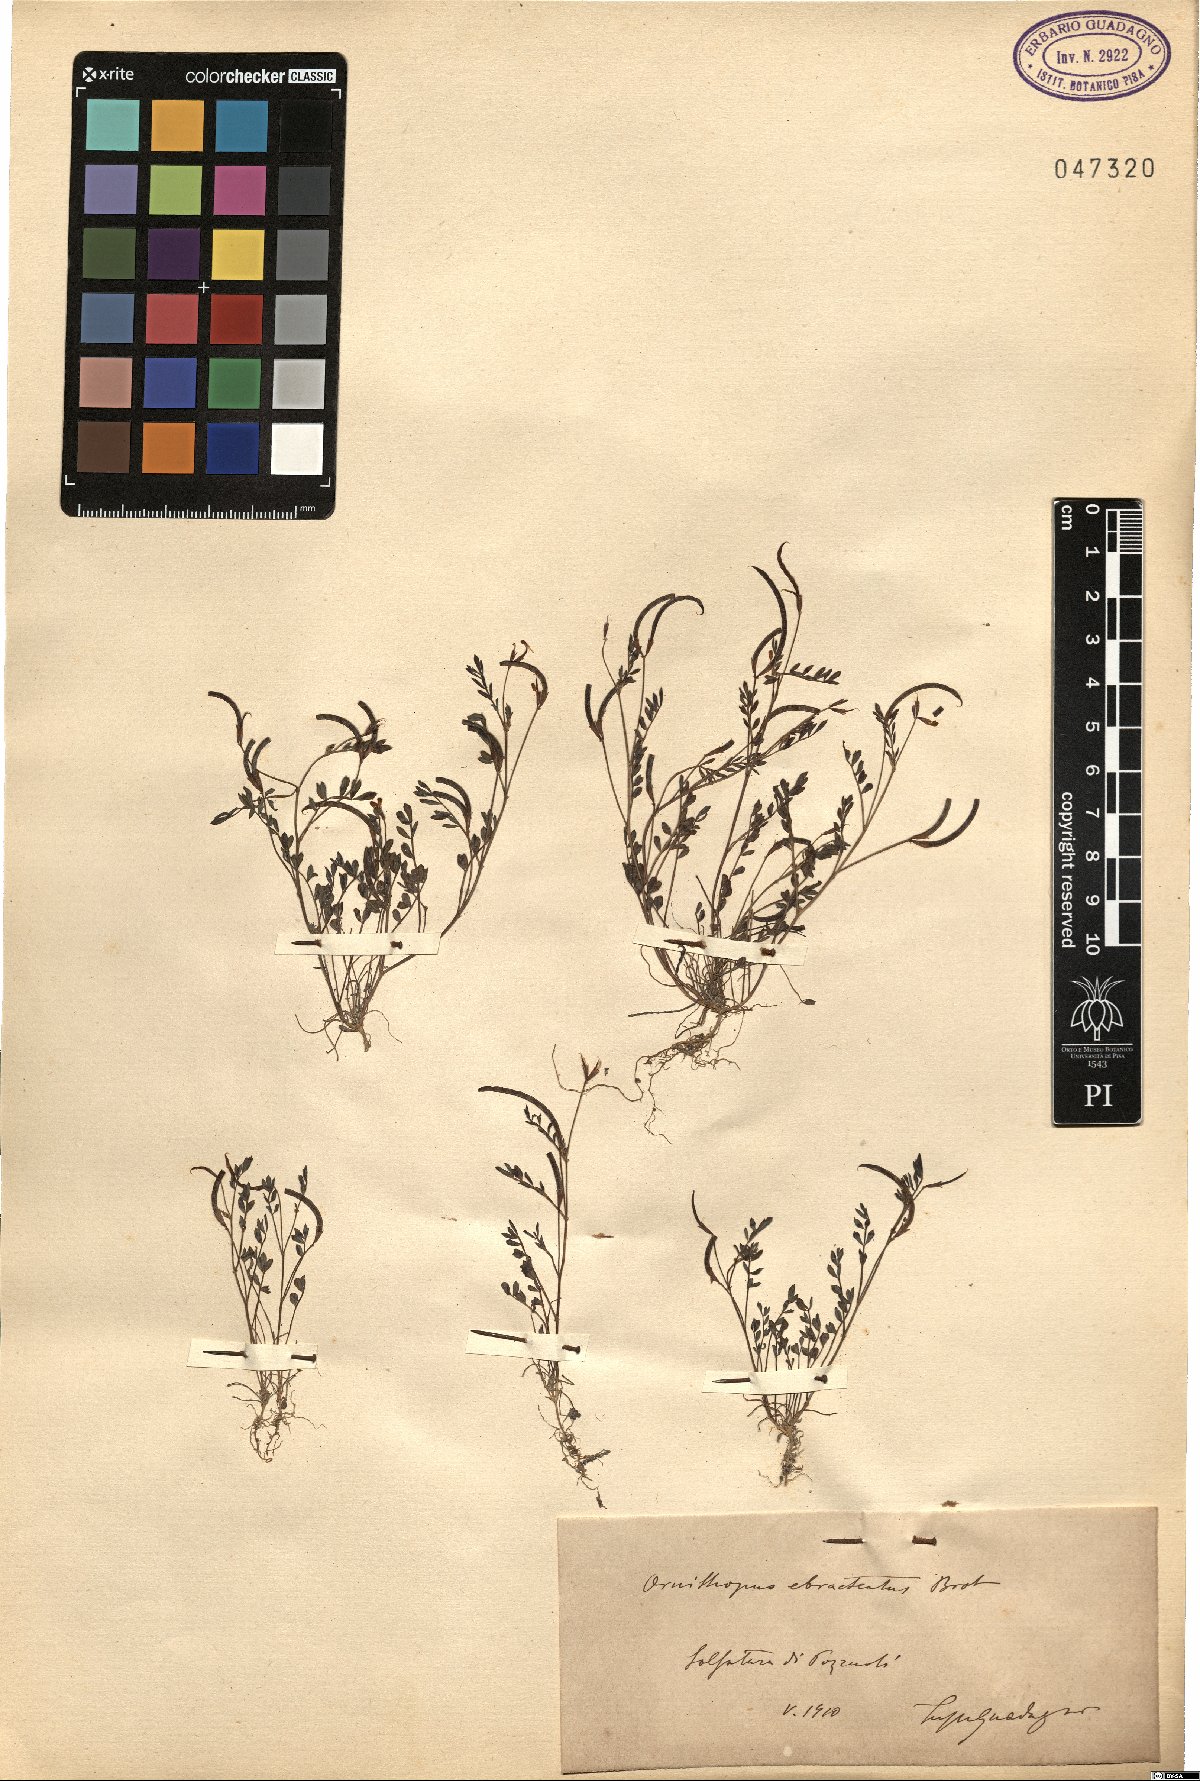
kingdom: Plantae
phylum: Tracheophyta
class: Magnoliopsida
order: Fabales
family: Fabaceae
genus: Ornithopus
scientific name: Ornithopus pinnatus
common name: Orange bird's-foot
